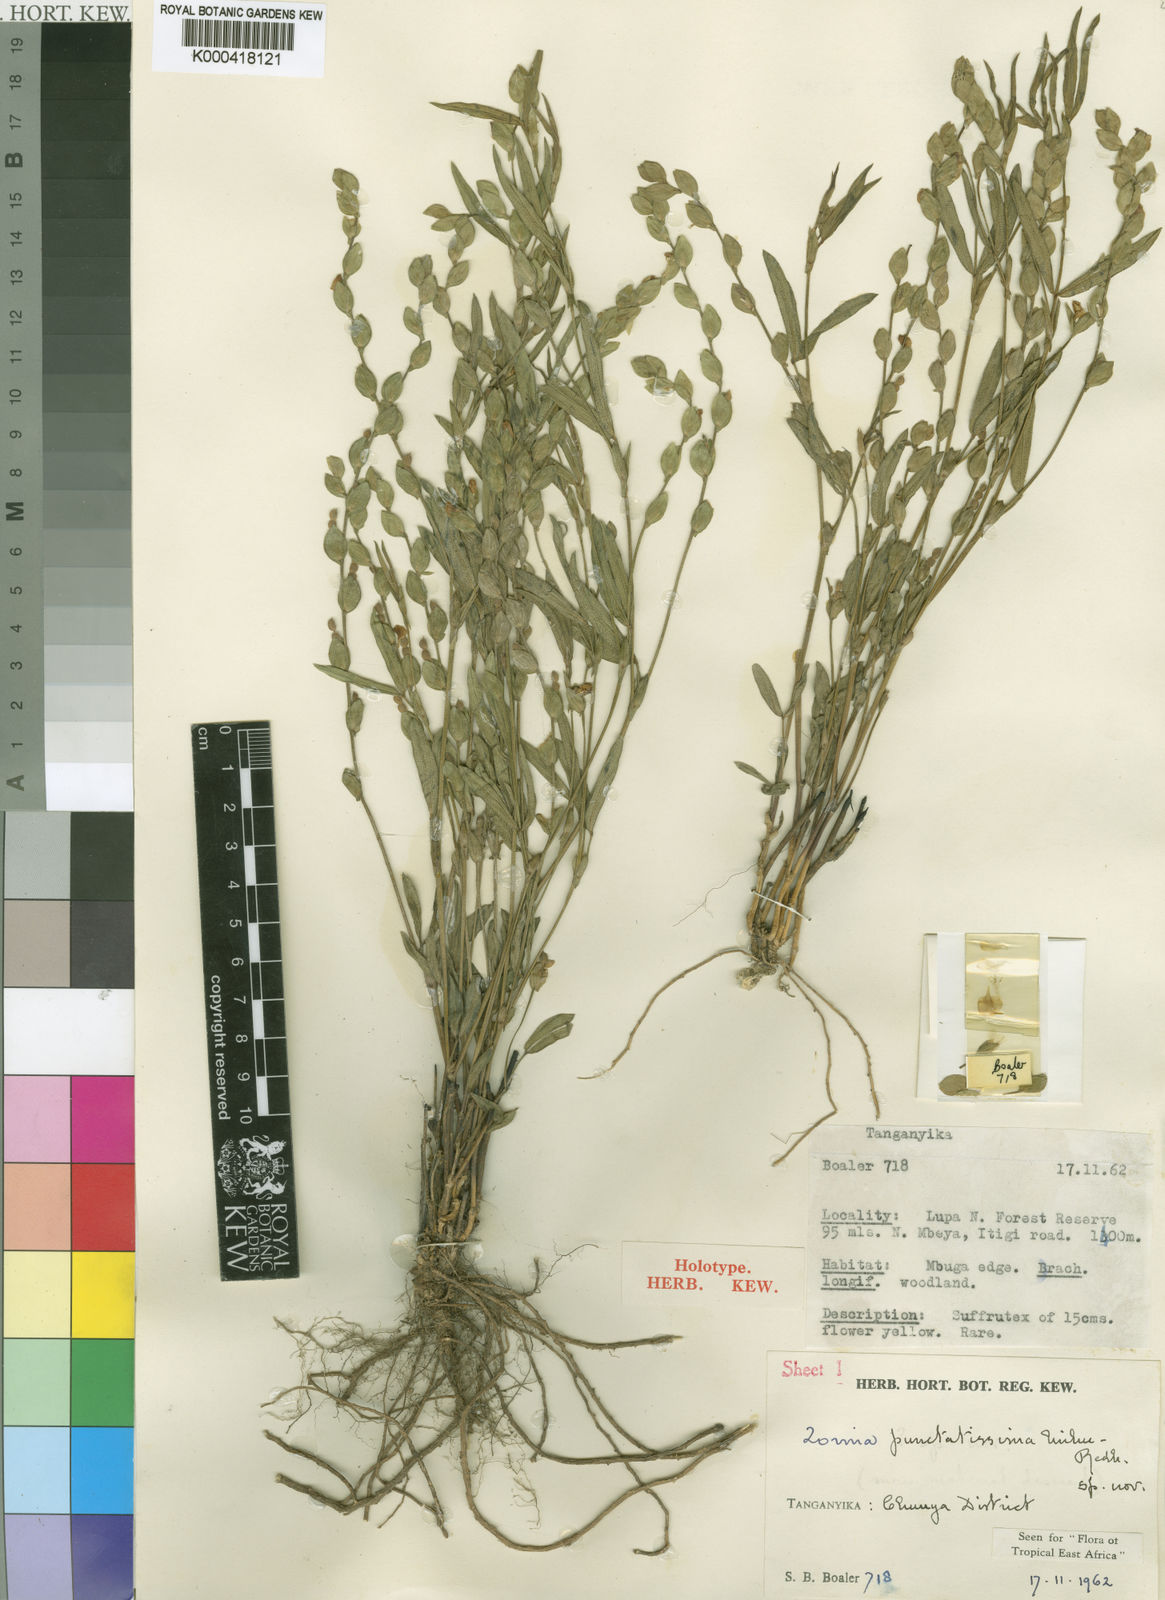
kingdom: Plantae
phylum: Tracheophyta
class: Magnoliopsida
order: Fabales
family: Fabaceae
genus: Zornia
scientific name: Zornia punctatissima
